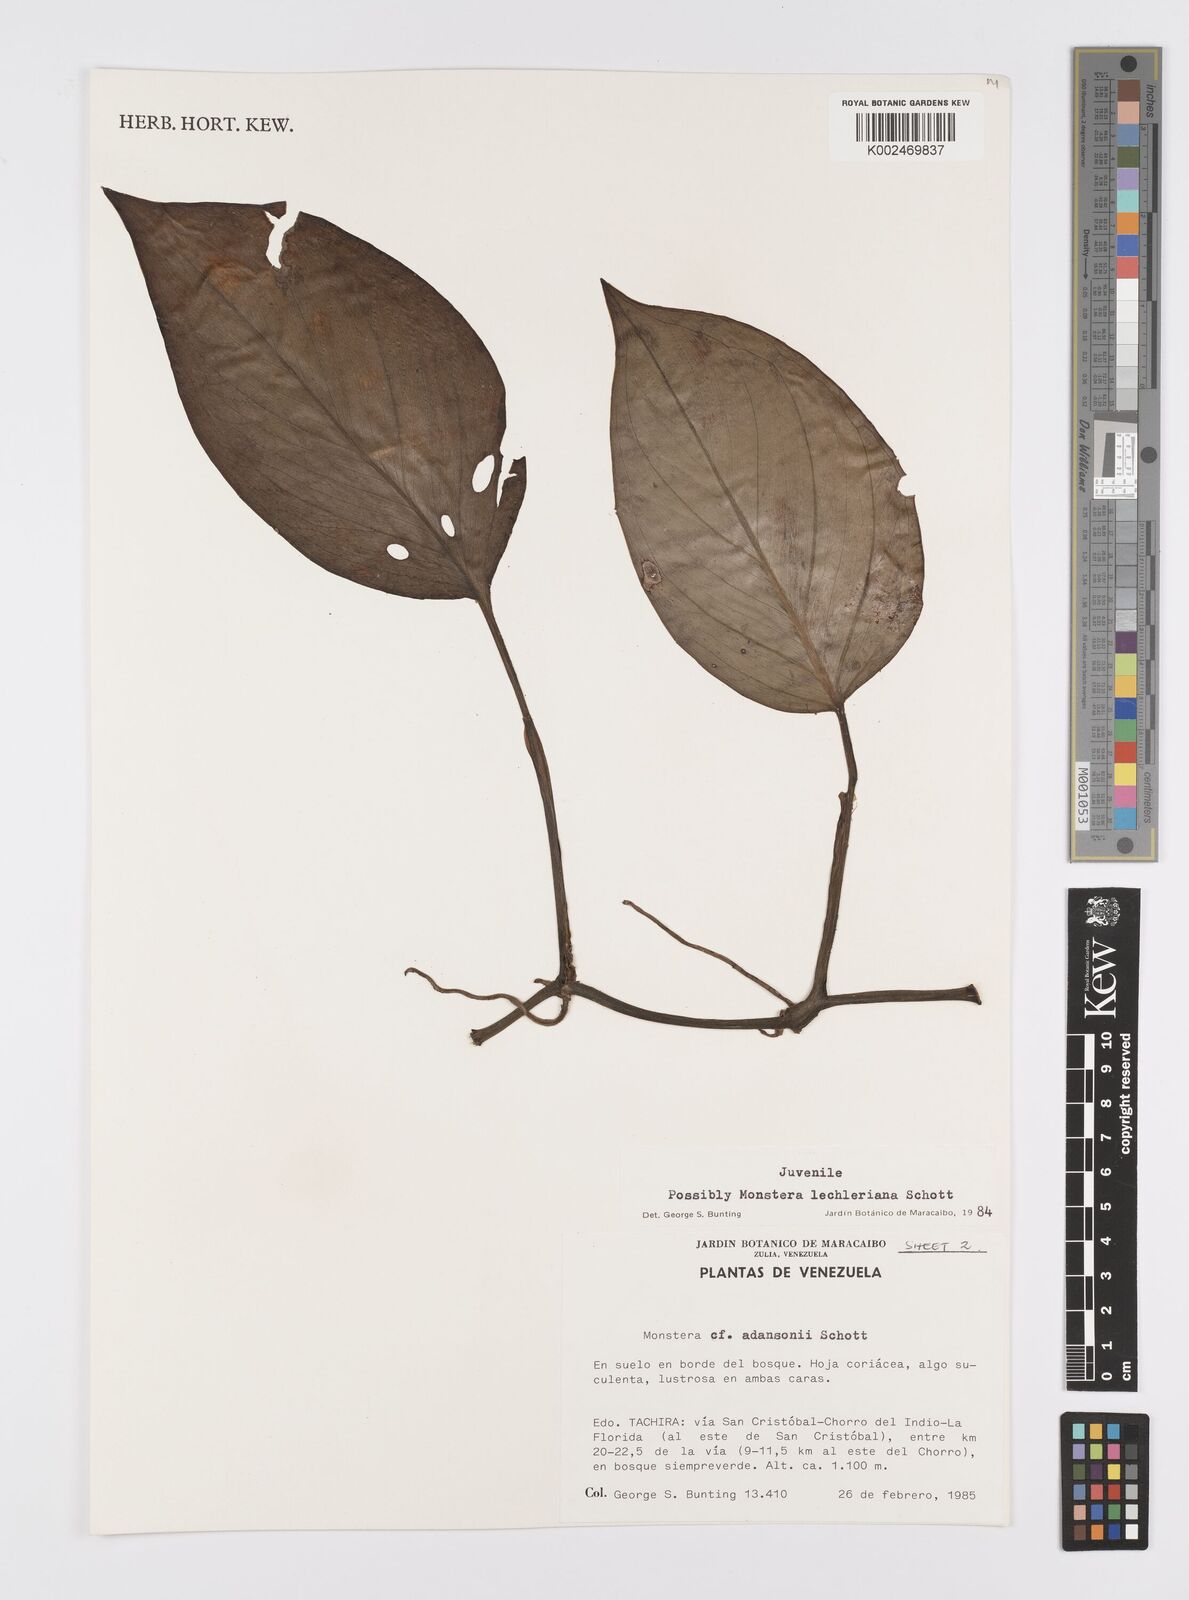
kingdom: Plantae
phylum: Tracheophyta
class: Liliopsida
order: Alismatales
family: Araceae
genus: Monstera
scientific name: Monstera lechleriana
